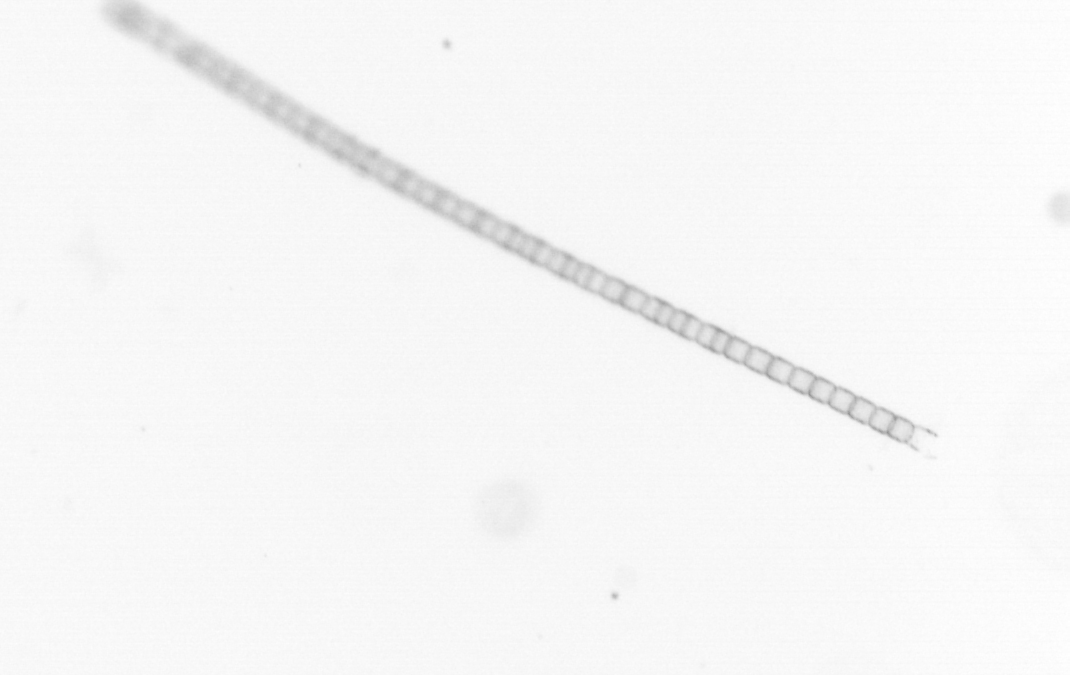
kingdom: Chromista
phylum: Ochrophyta
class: Bacillariophyceae
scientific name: Bacillariophyceae
